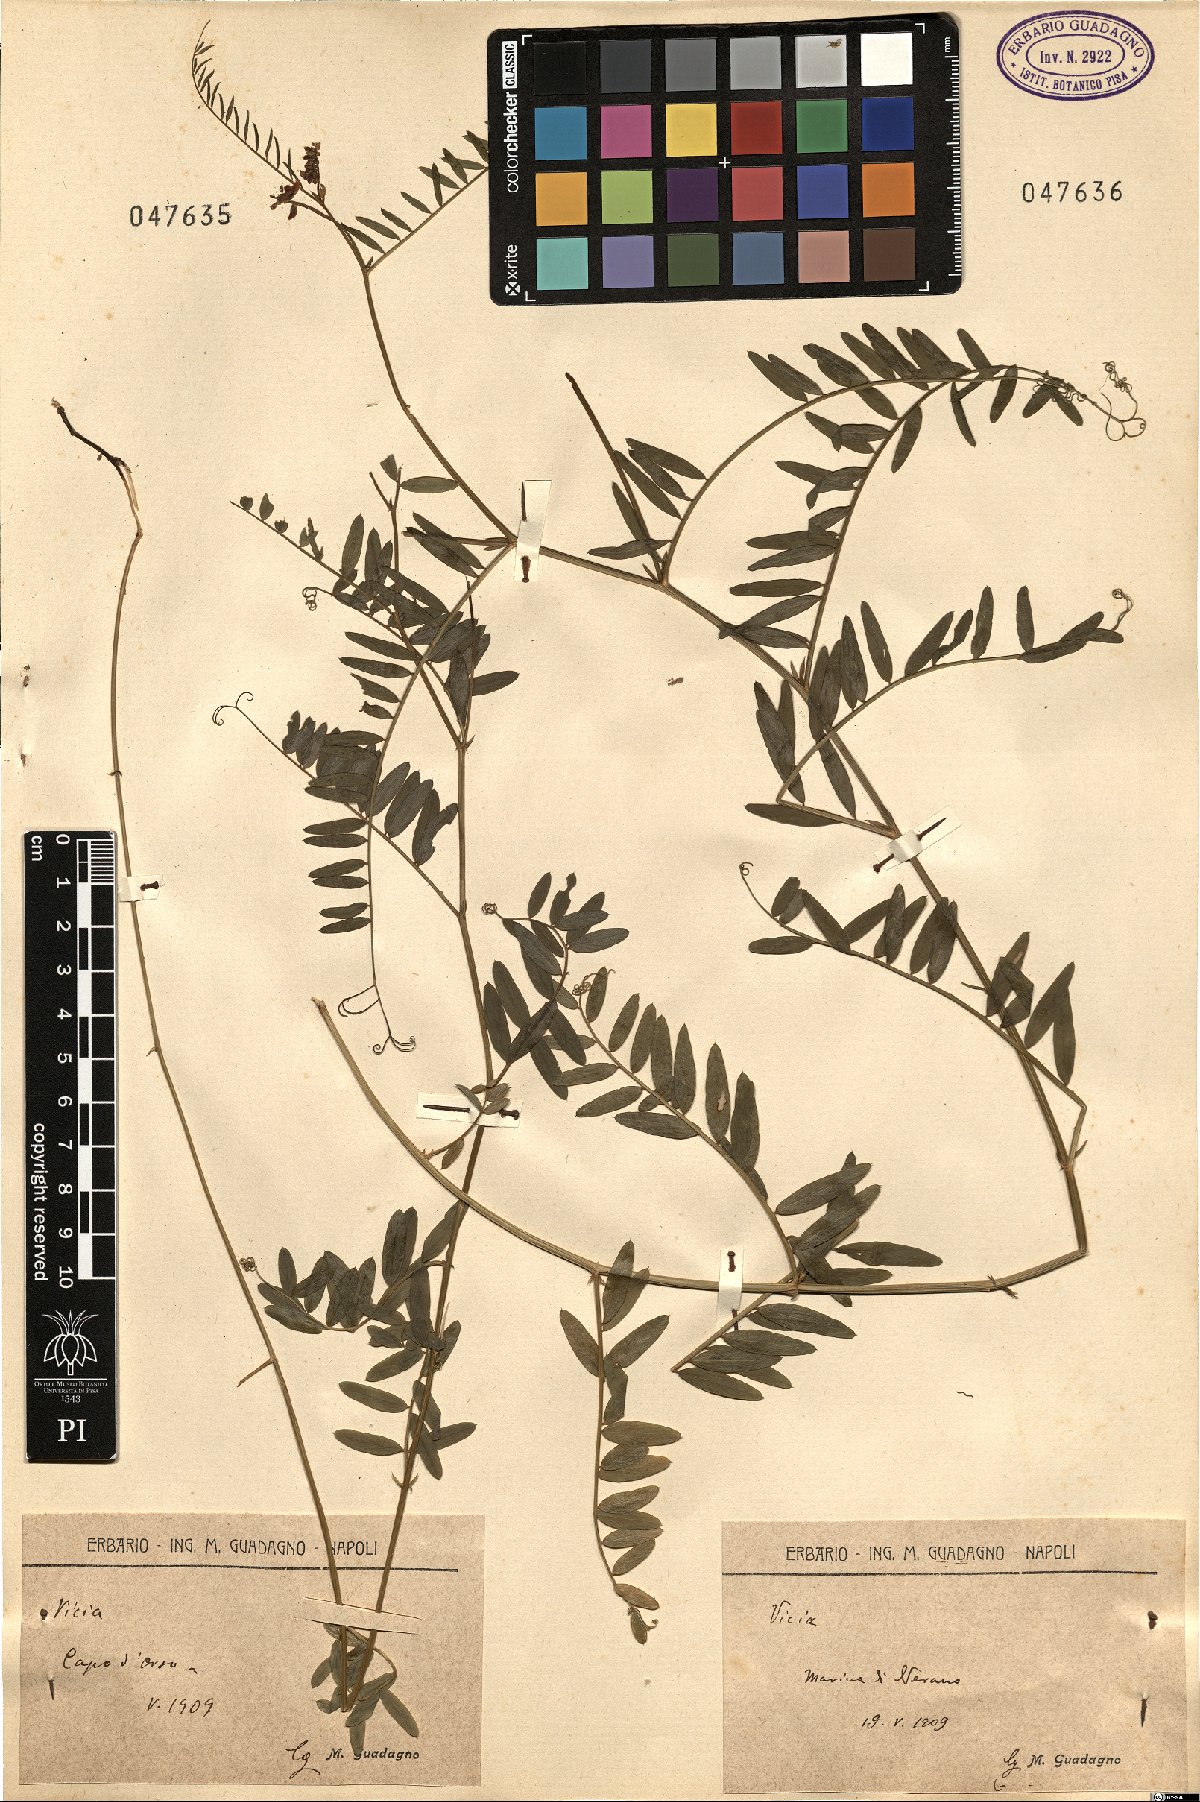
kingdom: Plantae
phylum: Tracheophyta
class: Magnoliopsida
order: Fabales
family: Fabaceae
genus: Vicia
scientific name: Vicia
